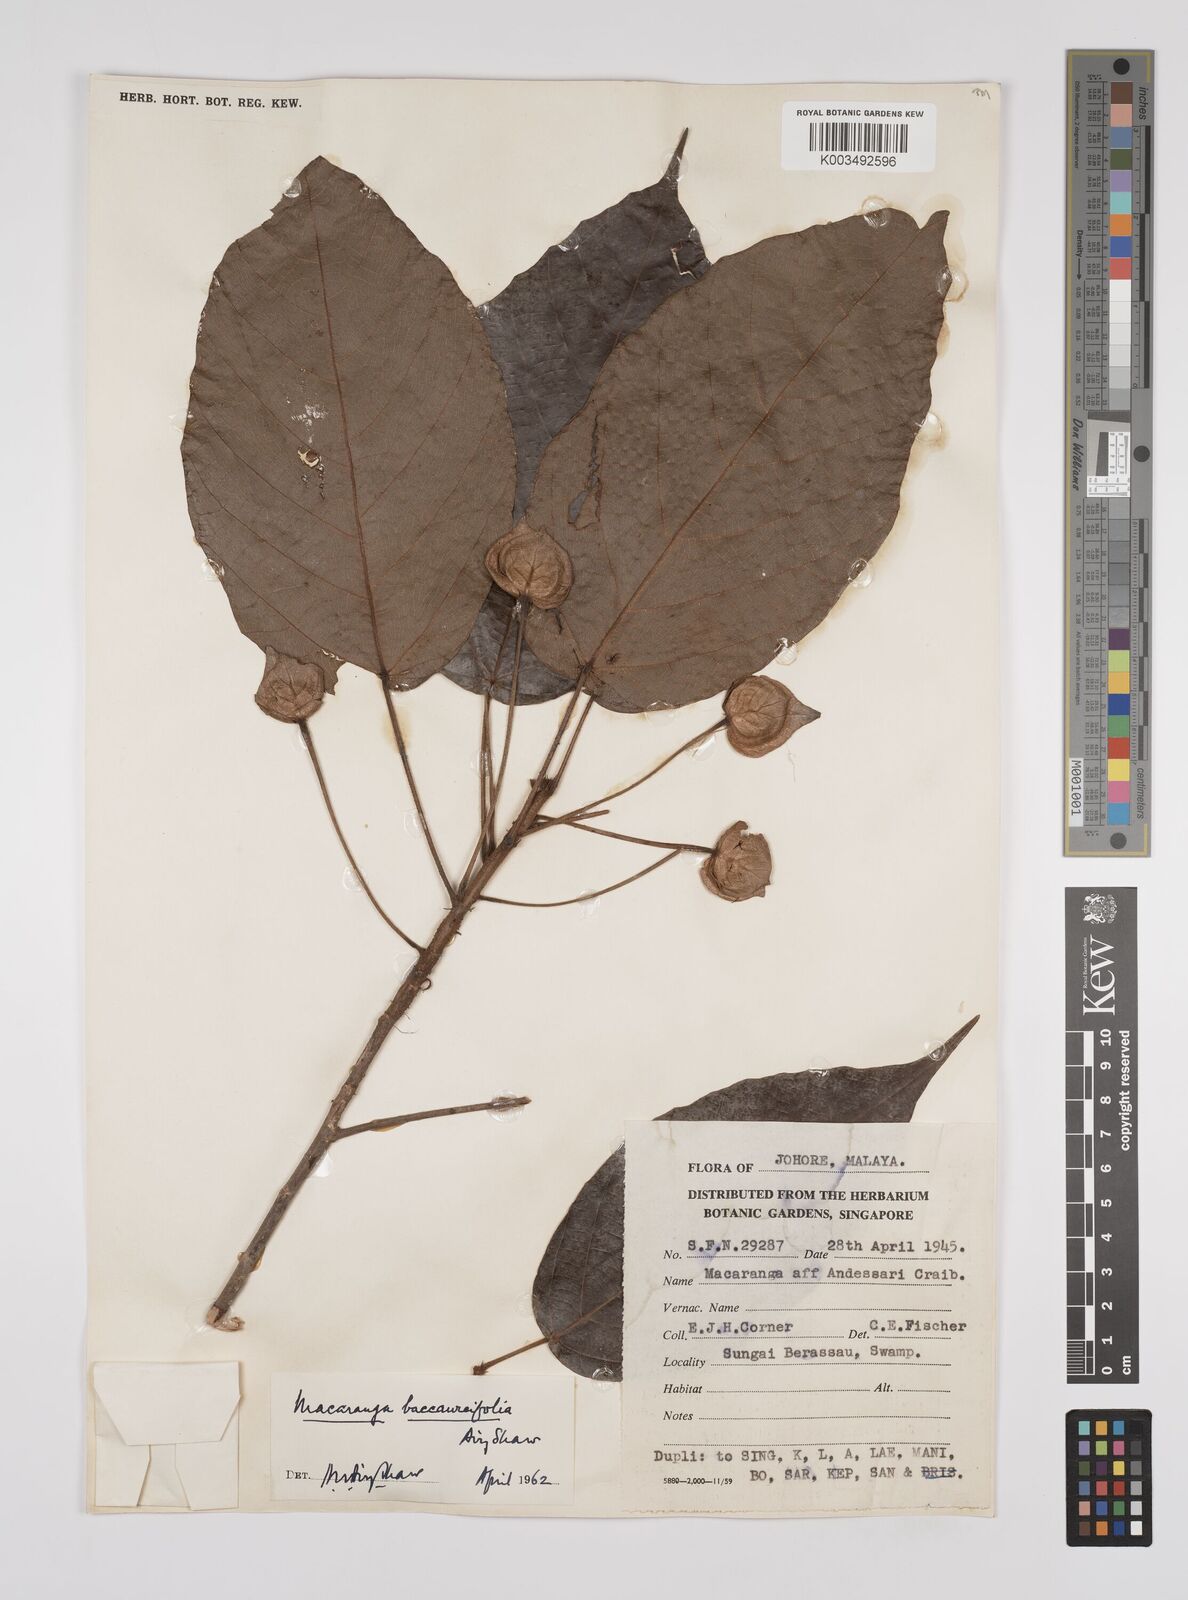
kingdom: Plantae
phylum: Tracheophyta
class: Magnoliopsida
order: Malpighiales
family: Euphorbiaceae
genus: Macaranga
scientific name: Macaranga baccaureifolia
